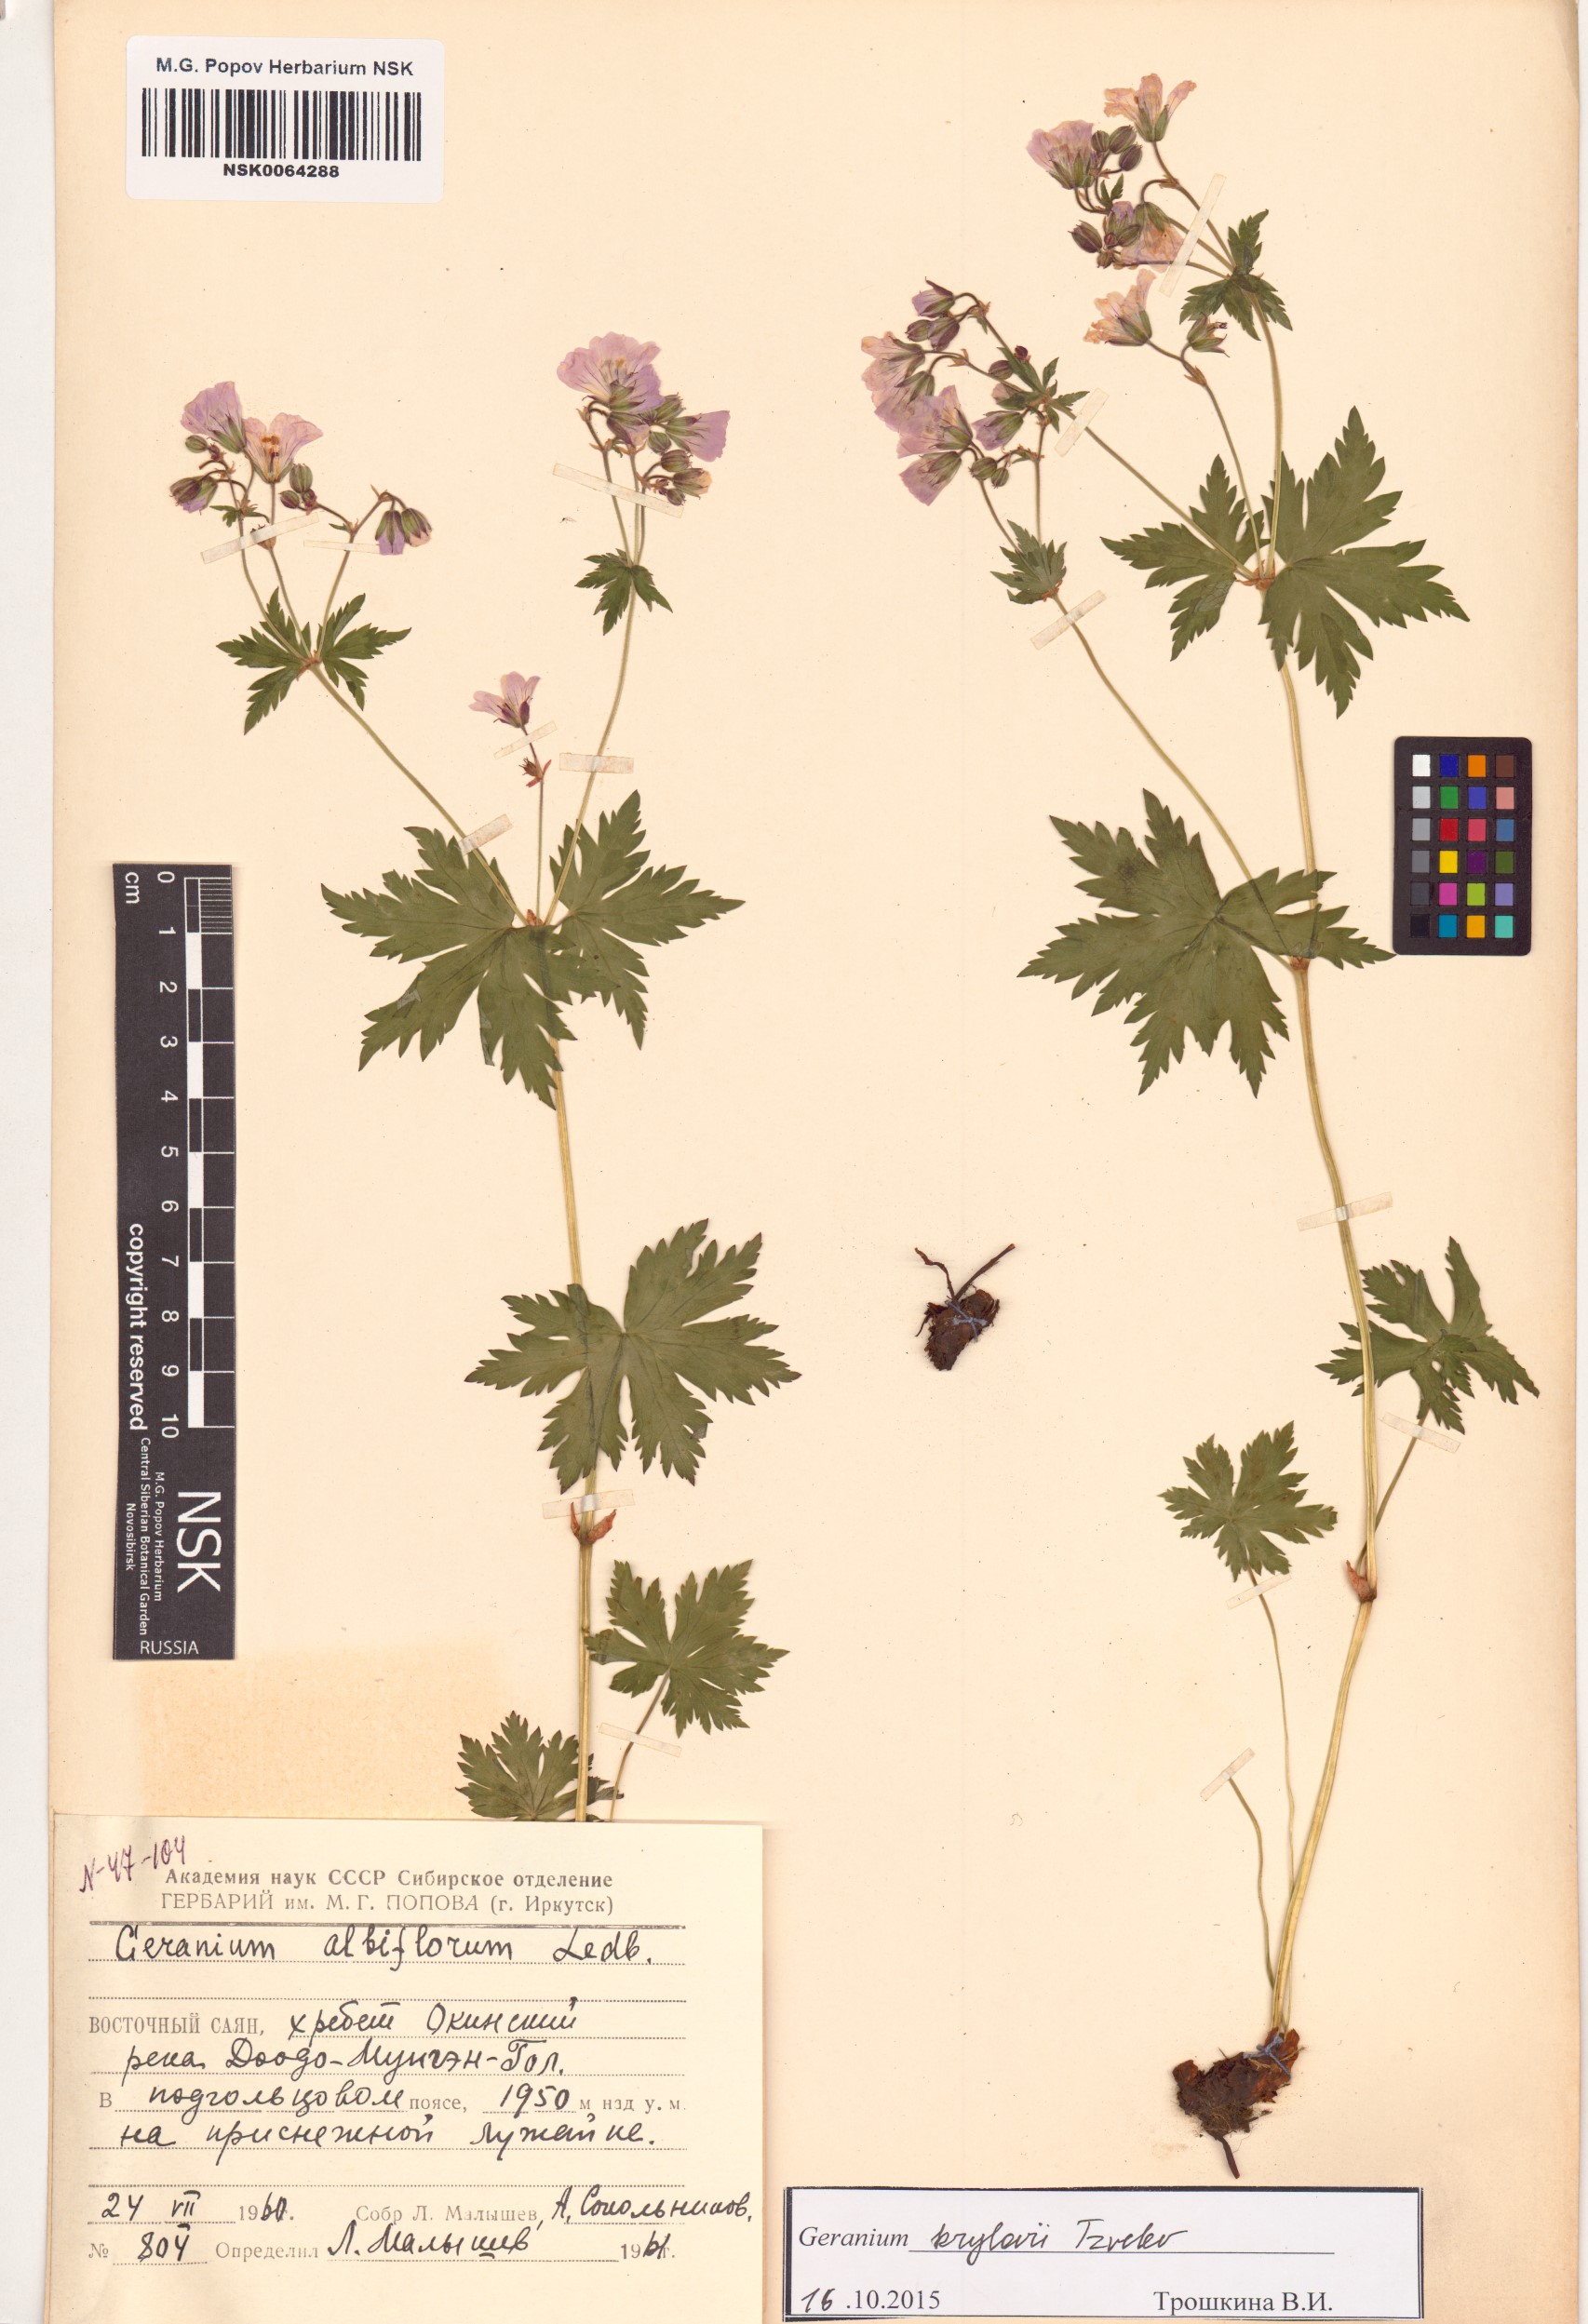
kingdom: Plantae
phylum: Tracheophyta
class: Magnoliopsida
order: Geraniales
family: Geraniaceae
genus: Geranium
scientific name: Geranium sylvaticum
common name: Wood crane's-bill
